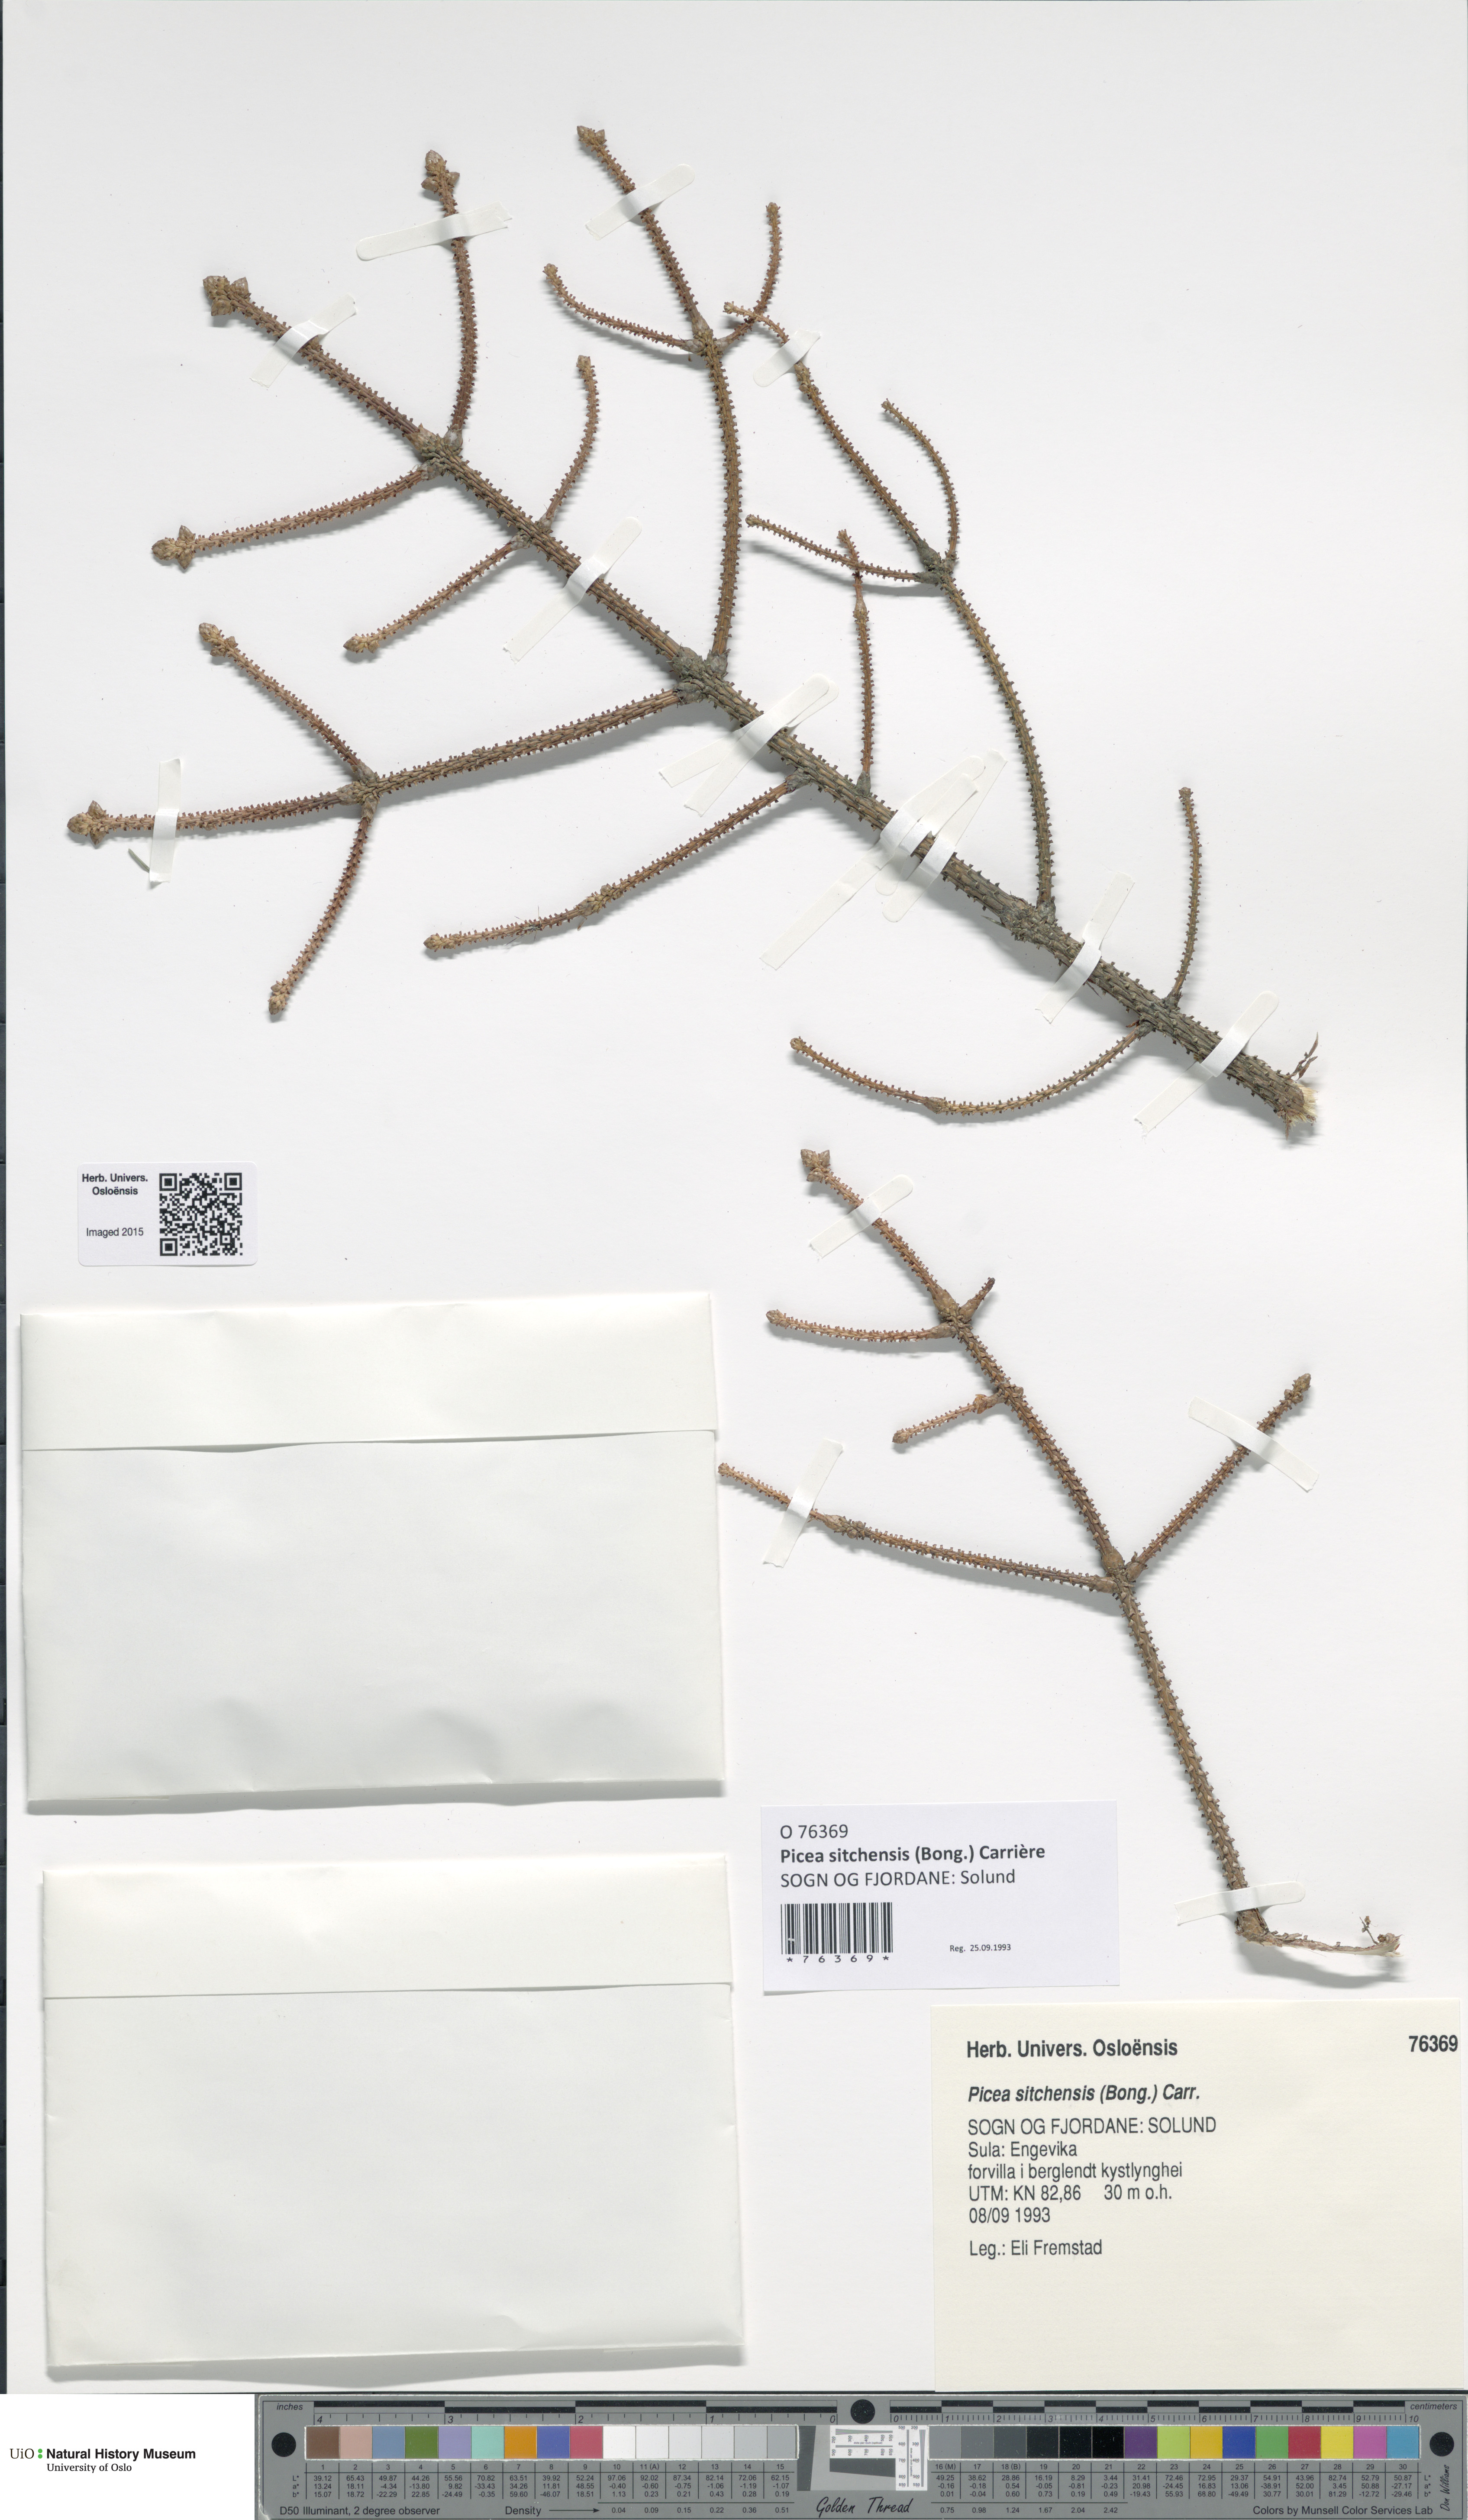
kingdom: Plantae
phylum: Tracheophyta
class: Pinopsida
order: Pinales
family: Pinaceae
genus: Picea
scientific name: Picea sitchensis
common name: Sitka spruce
